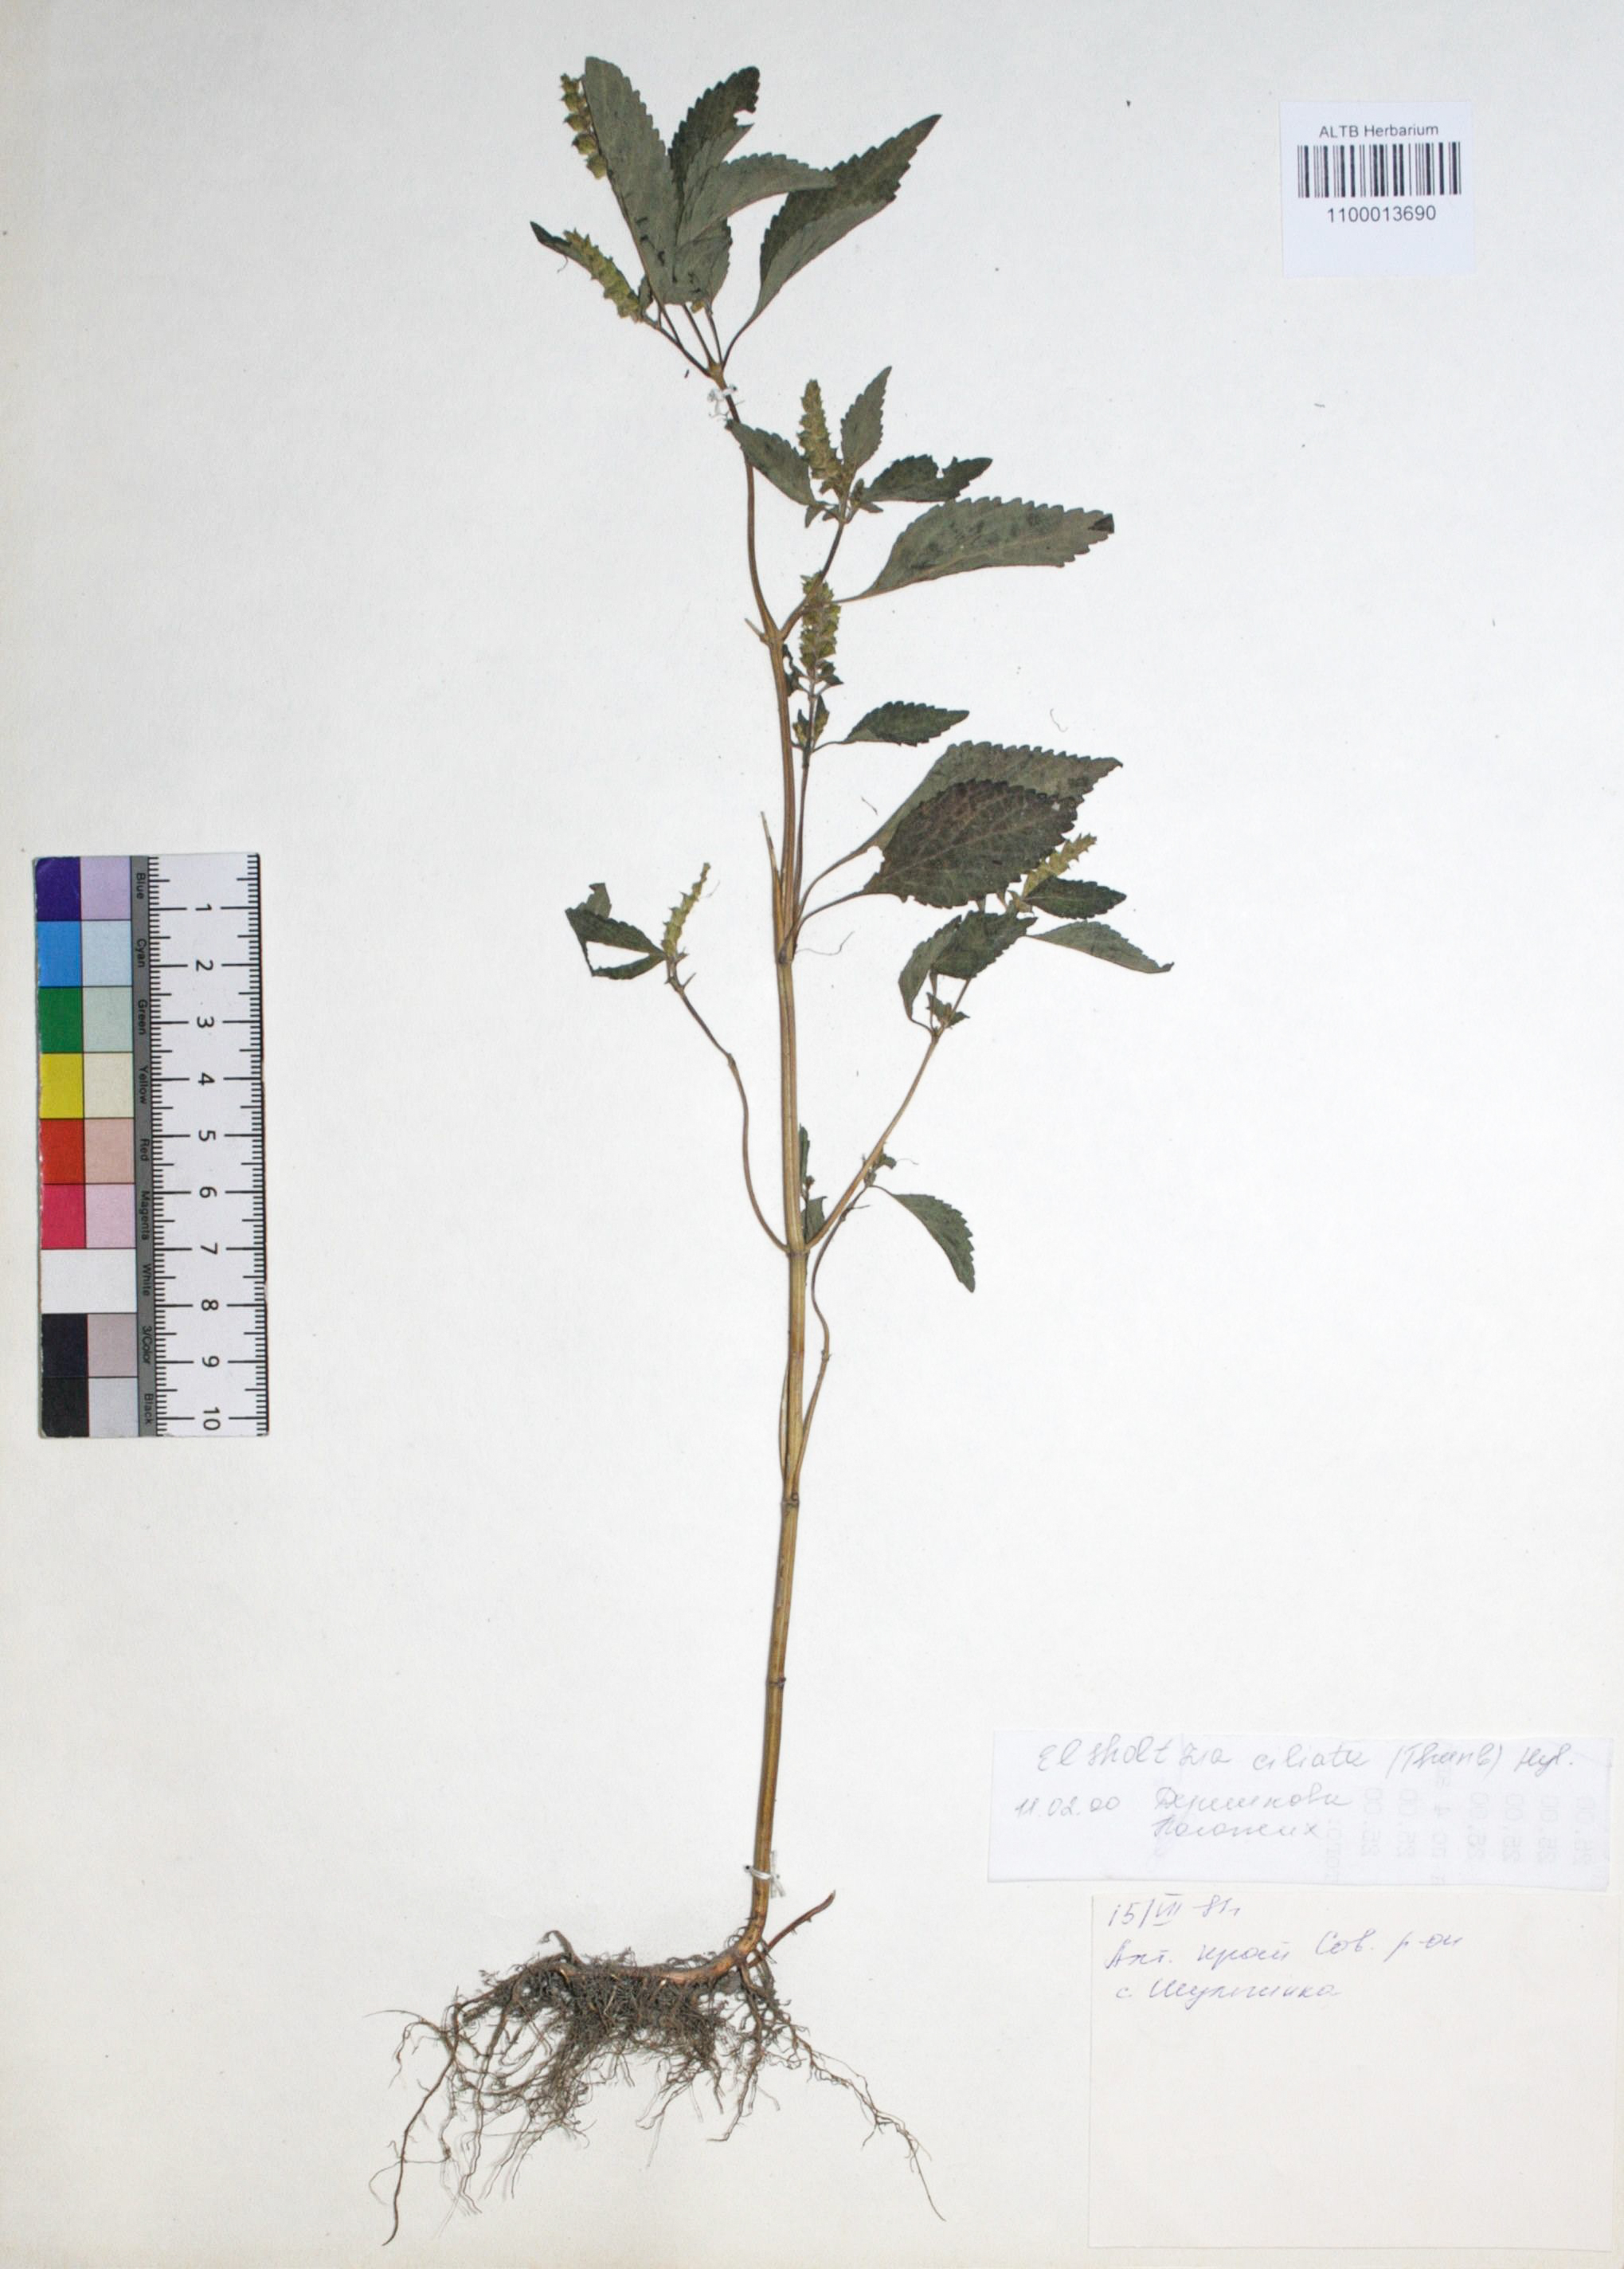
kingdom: Plantae
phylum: Tracheophyta
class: Magnoliopsida
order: Lamiales
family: Lamiaceae
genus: Elsholtzia
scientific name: Elsholtzia ciliata
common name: Ciliate elsholtzia
